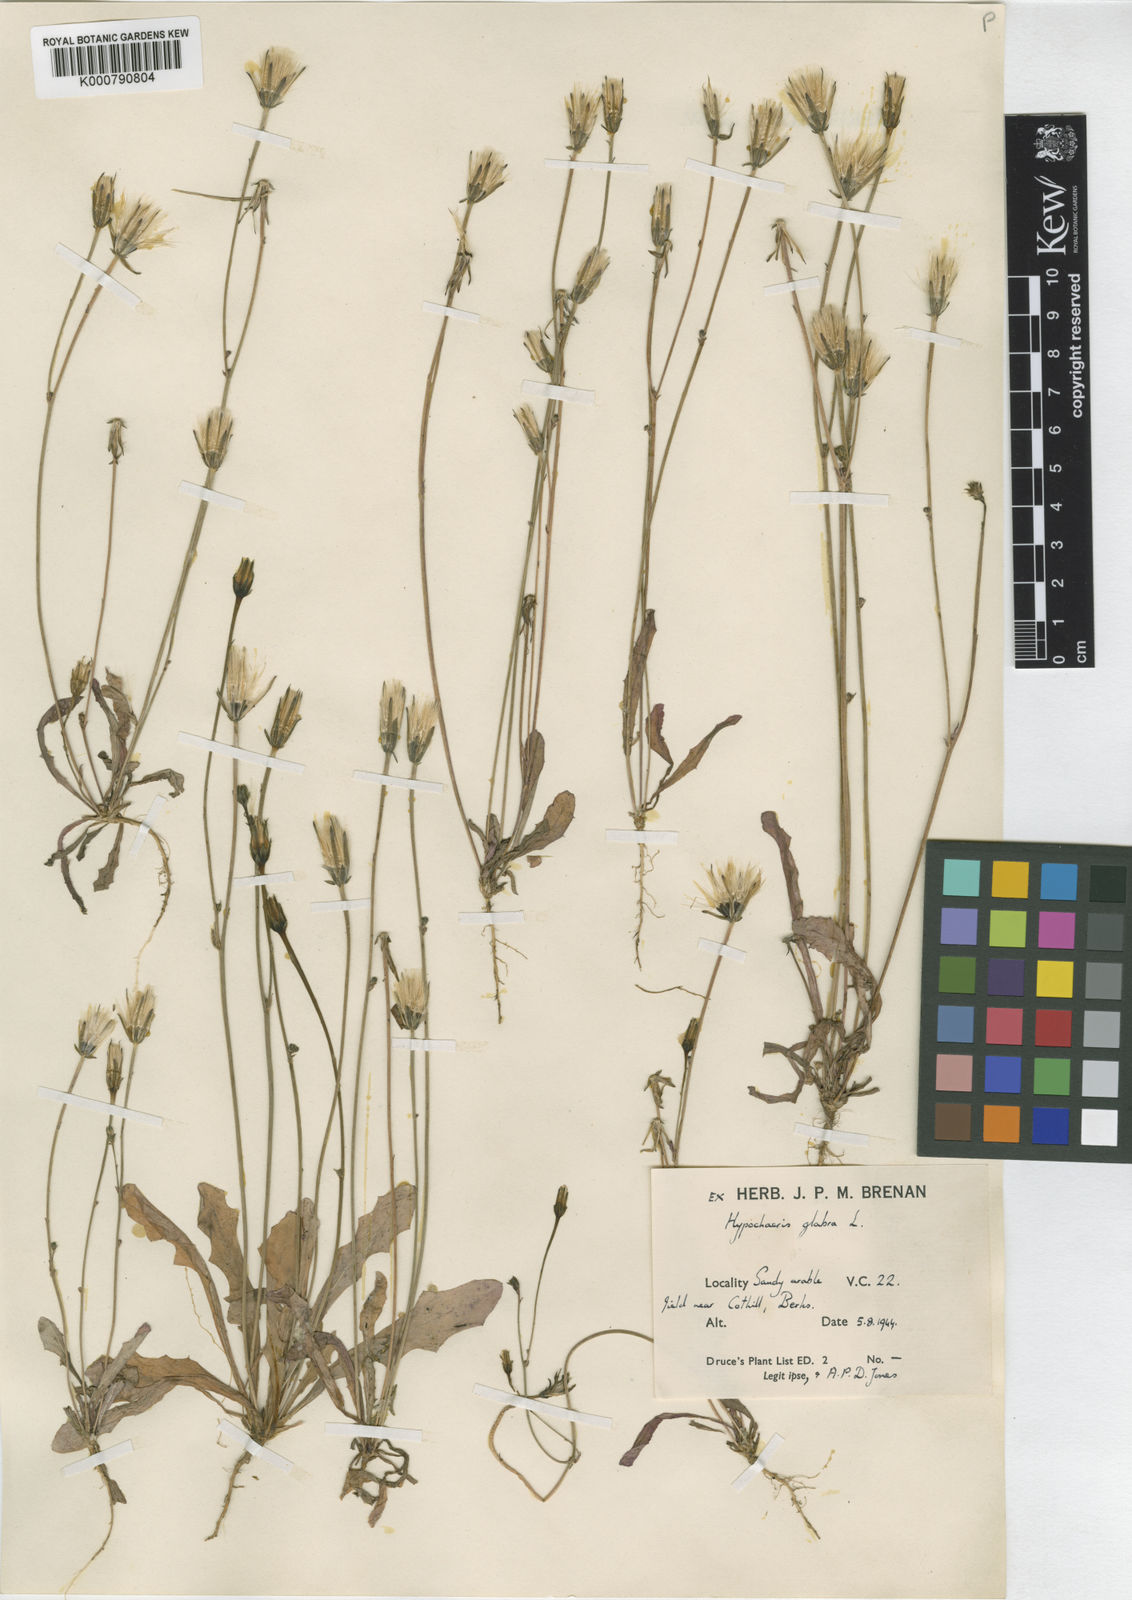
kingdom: Plantae
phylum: Tracheophyta
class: Magnoliopsida
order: Asterales
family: Asteraceae
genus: Hypochaeris
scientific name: Hypochaeris glabra
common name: Smooth catsear
